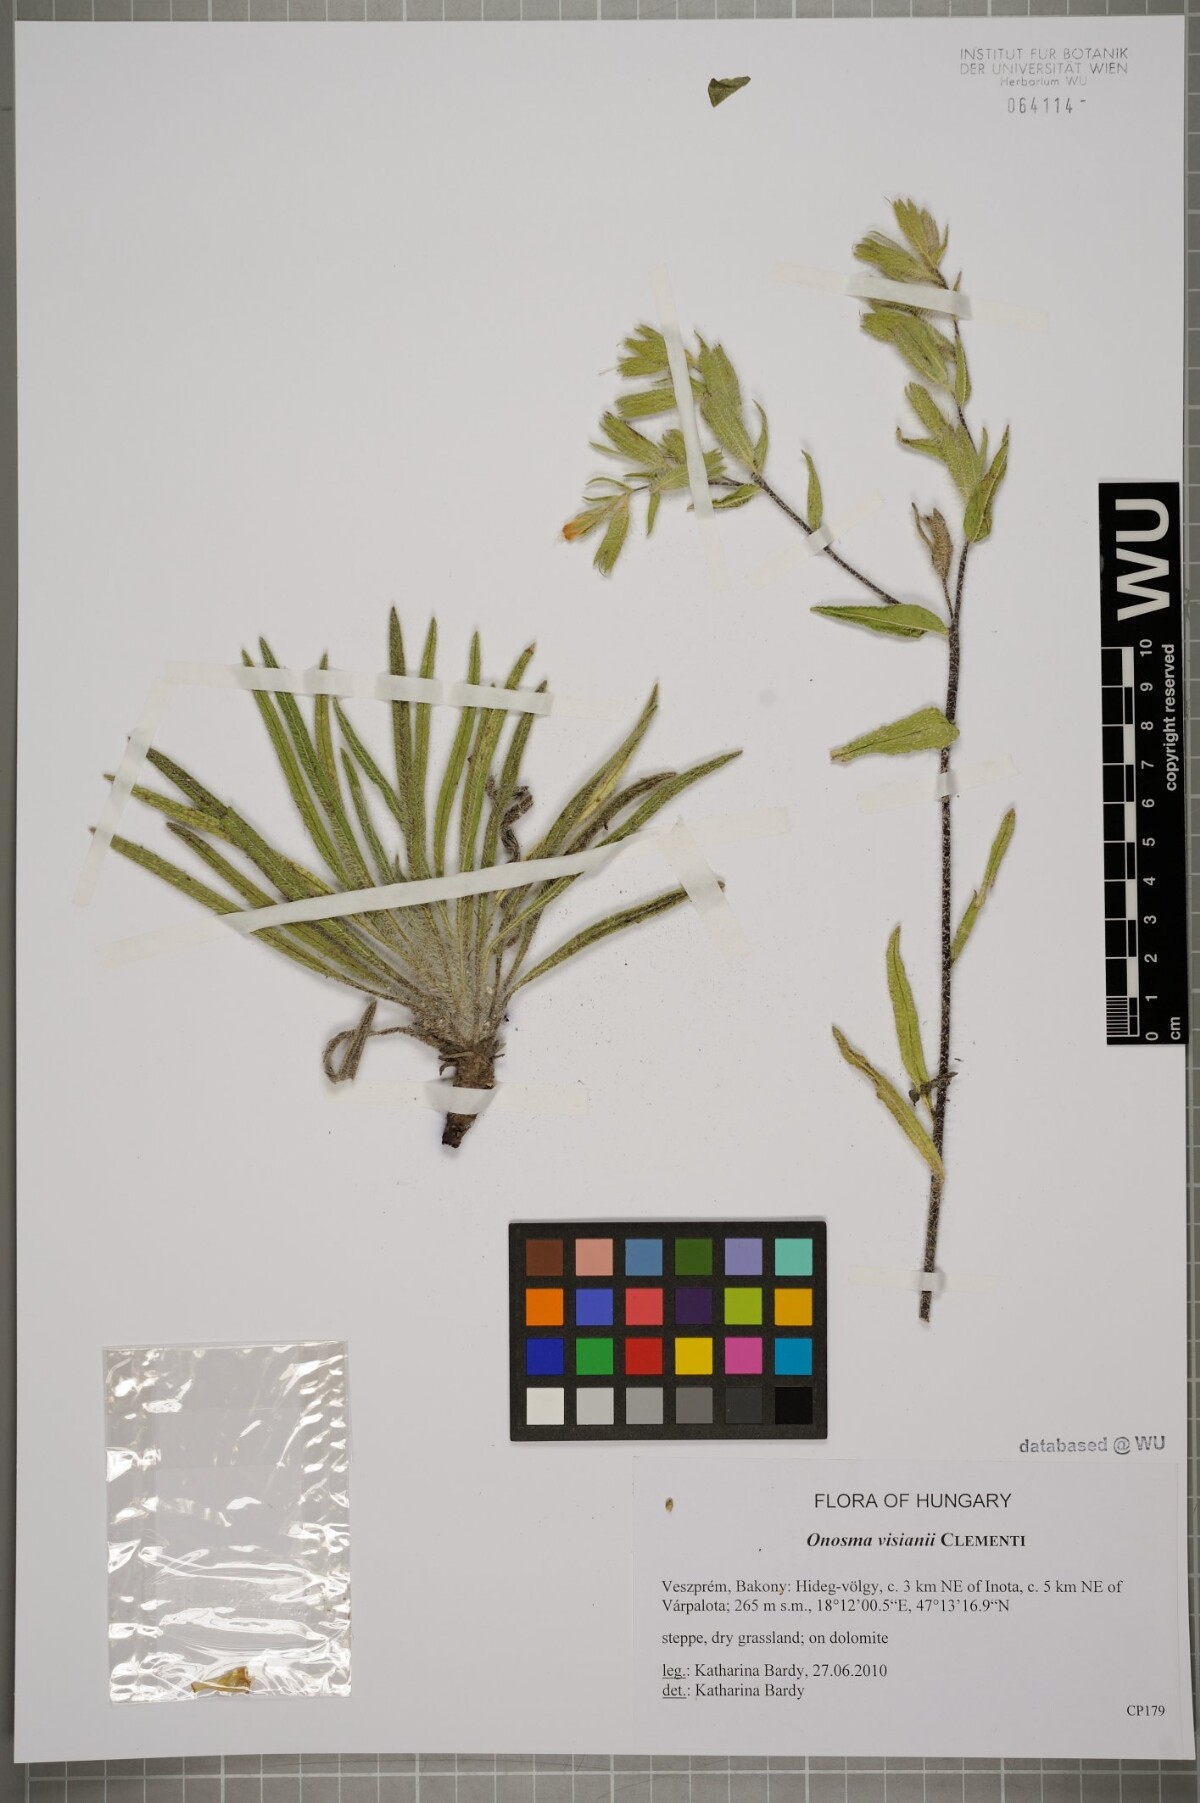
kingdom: Plantae
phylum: Tracheophyta
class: Magnoliopsida
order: Boraginales
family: Boraginaceae
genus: Onosma
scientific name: Onosma visianii
